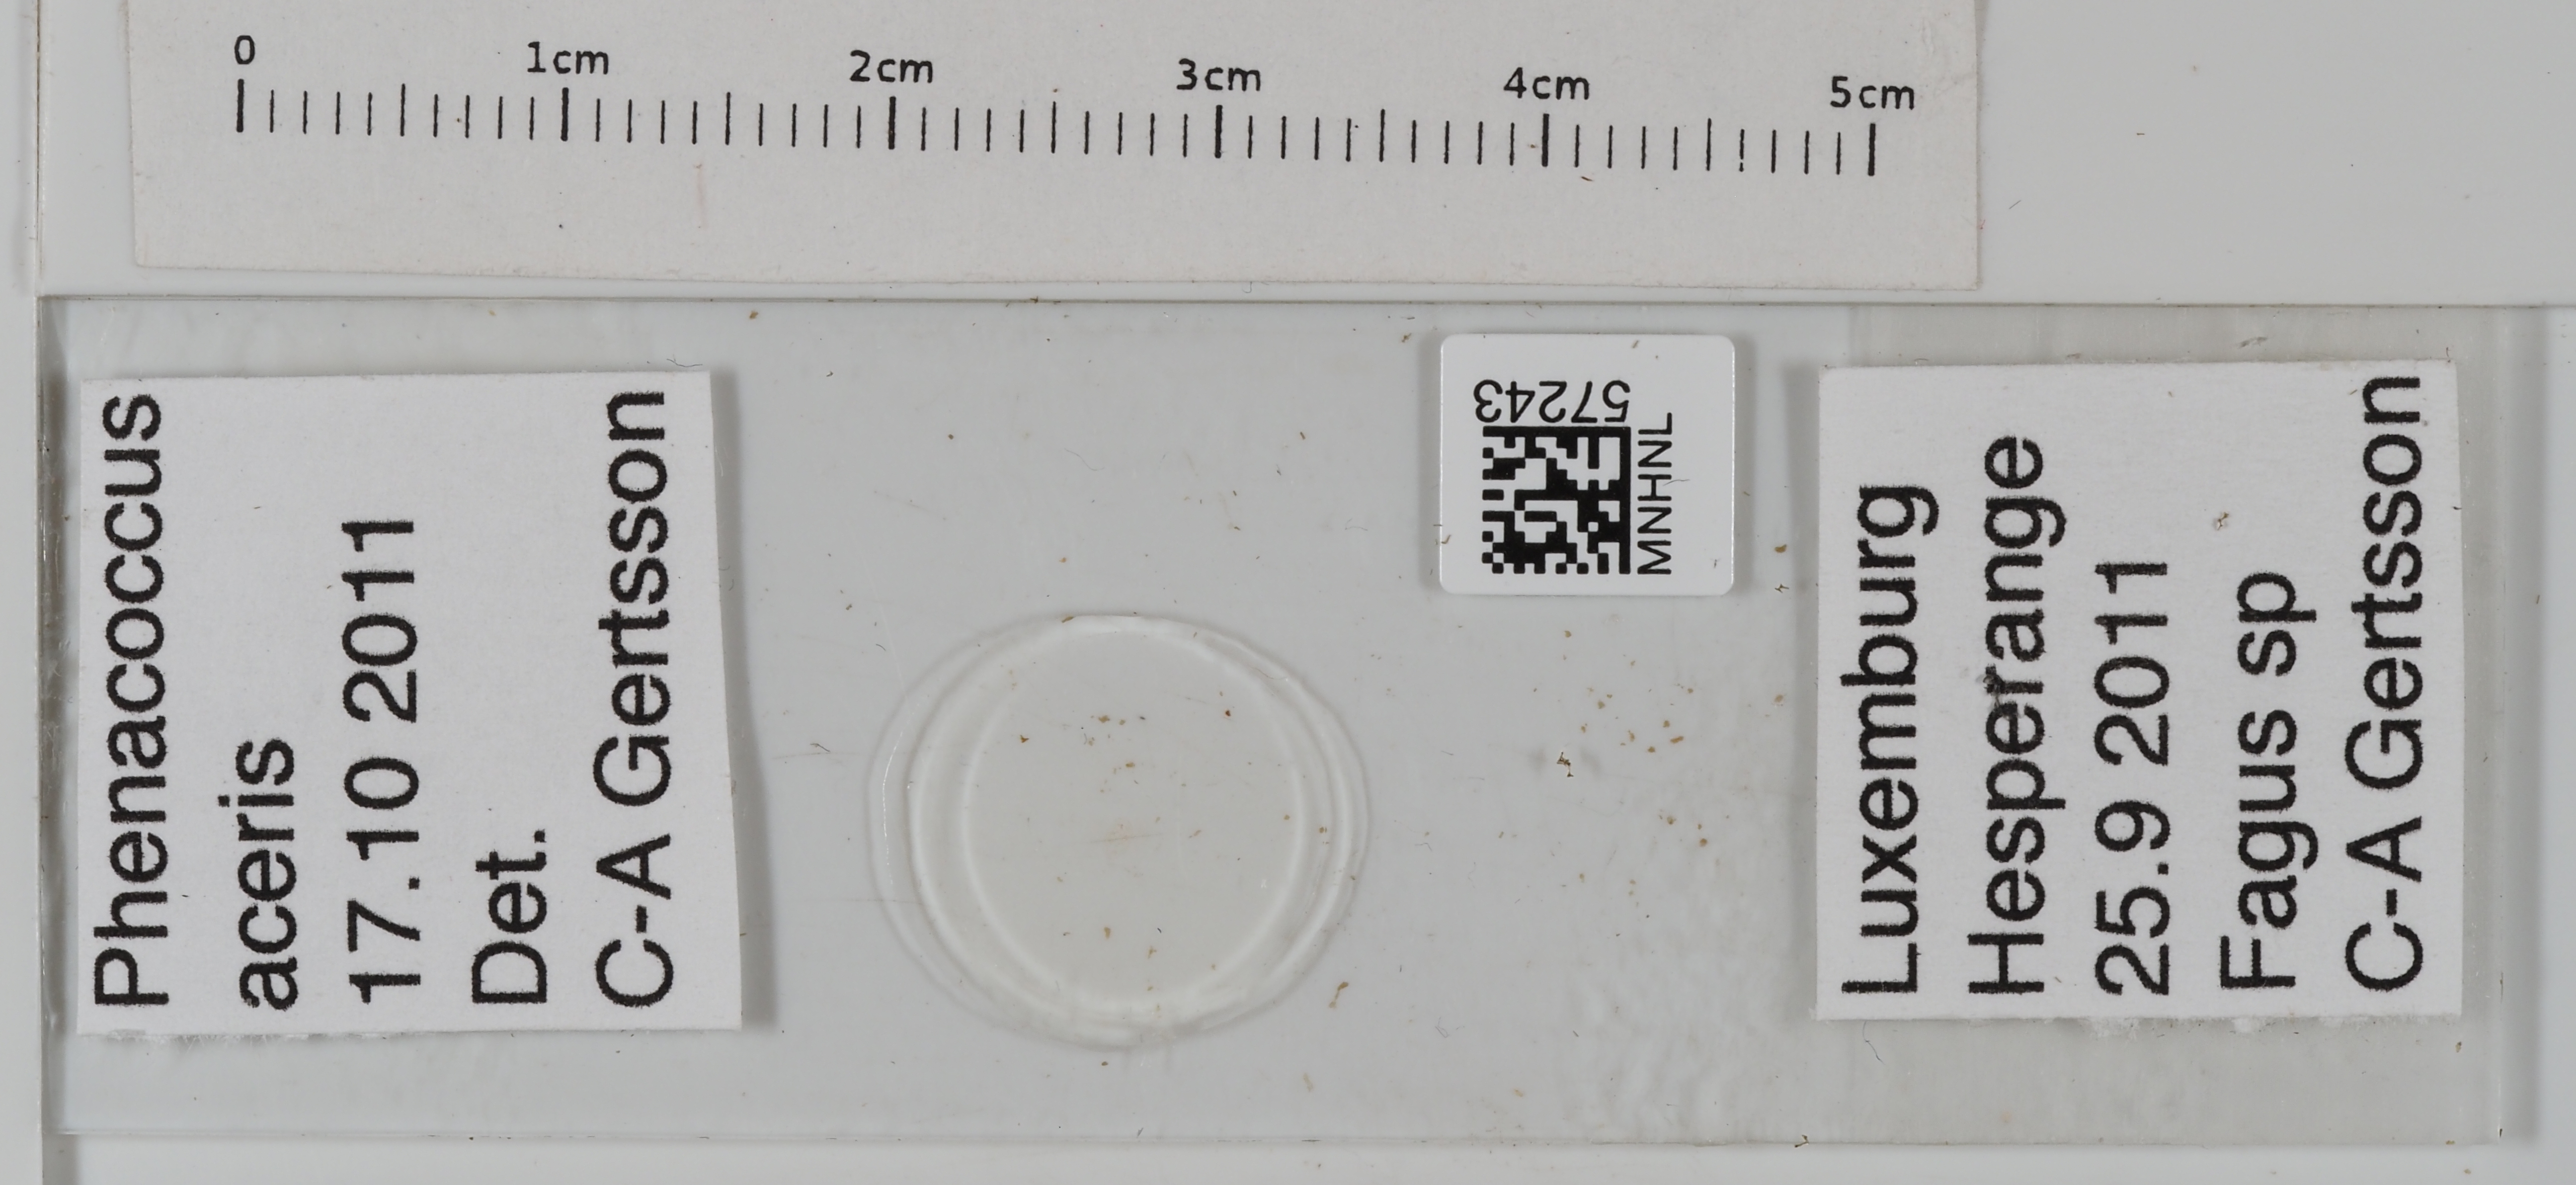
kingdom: Animalia
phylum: Arthropoda
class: Insecta
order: Hemiptera
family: Pseudococcidae
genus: Phenacoccus
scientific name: Phenacoccus aceris
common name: Apple mealybug
